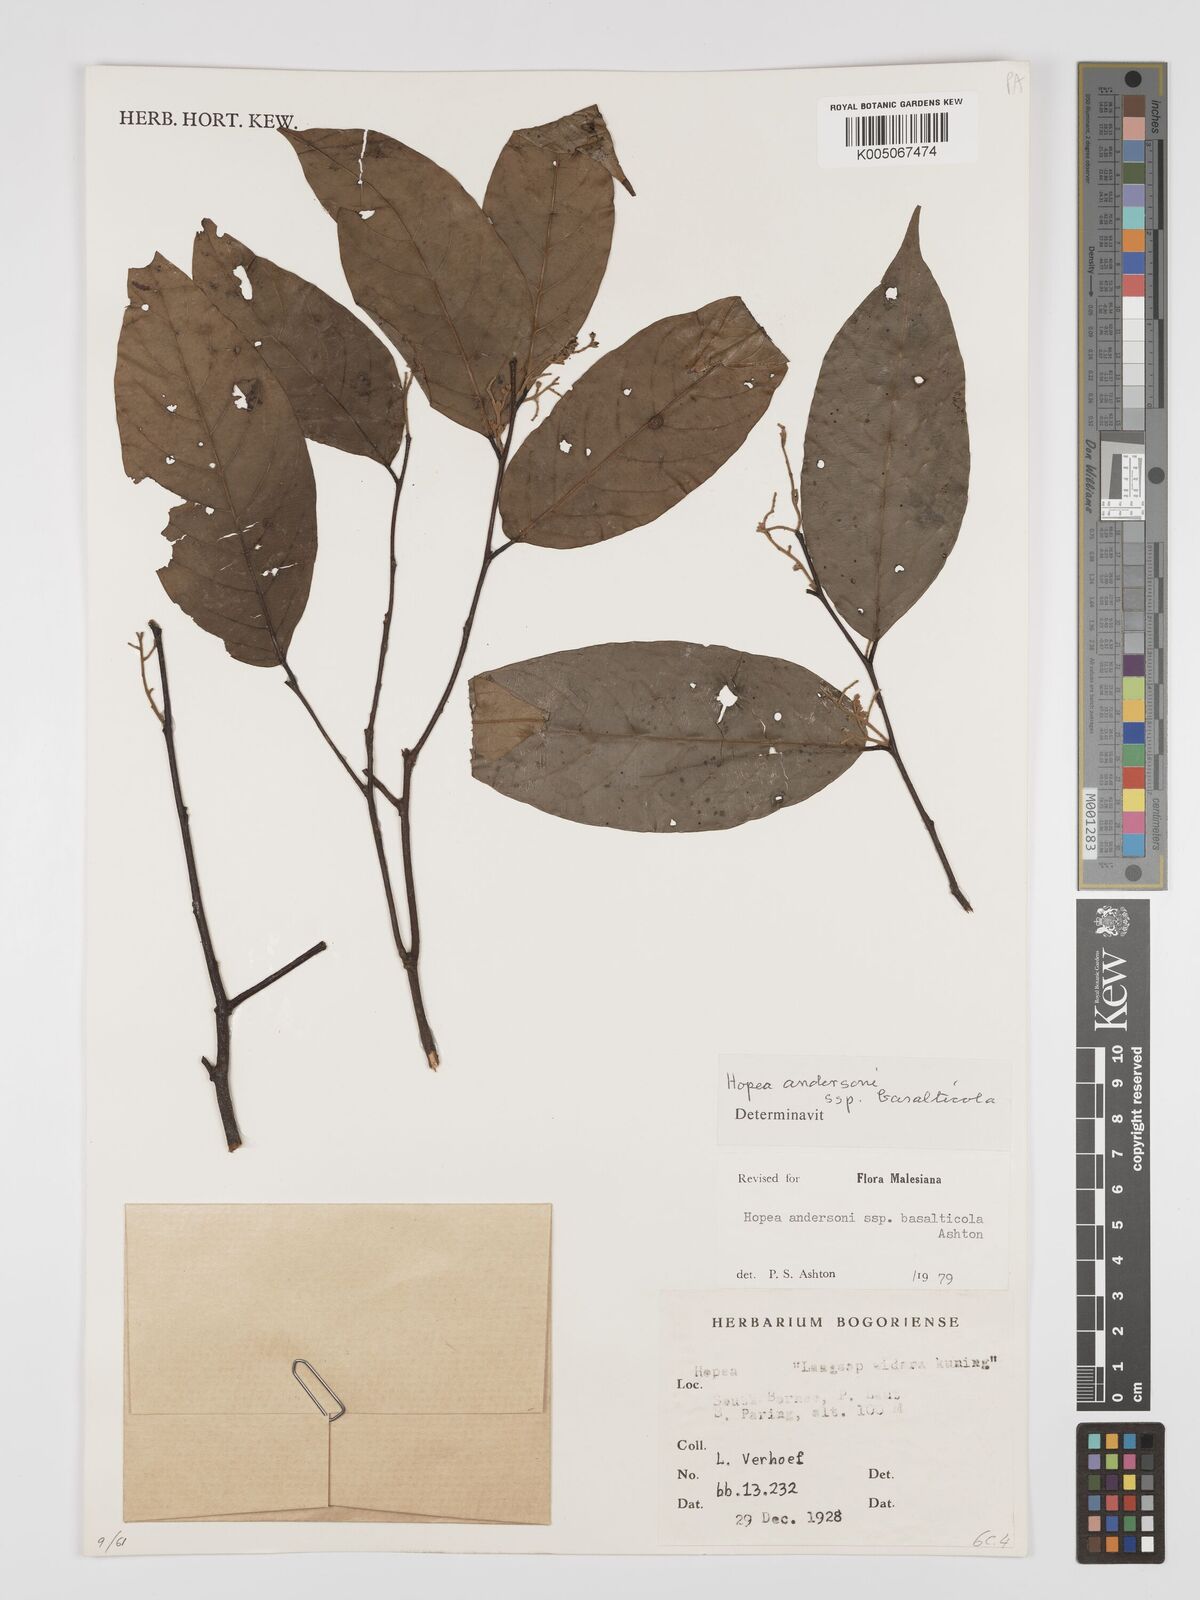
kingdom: Plantae
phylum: Tracheophyta
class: Magnoliopsida
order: Malvales
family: Dipterocarpaceae
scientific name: Dipterocarpaceae
